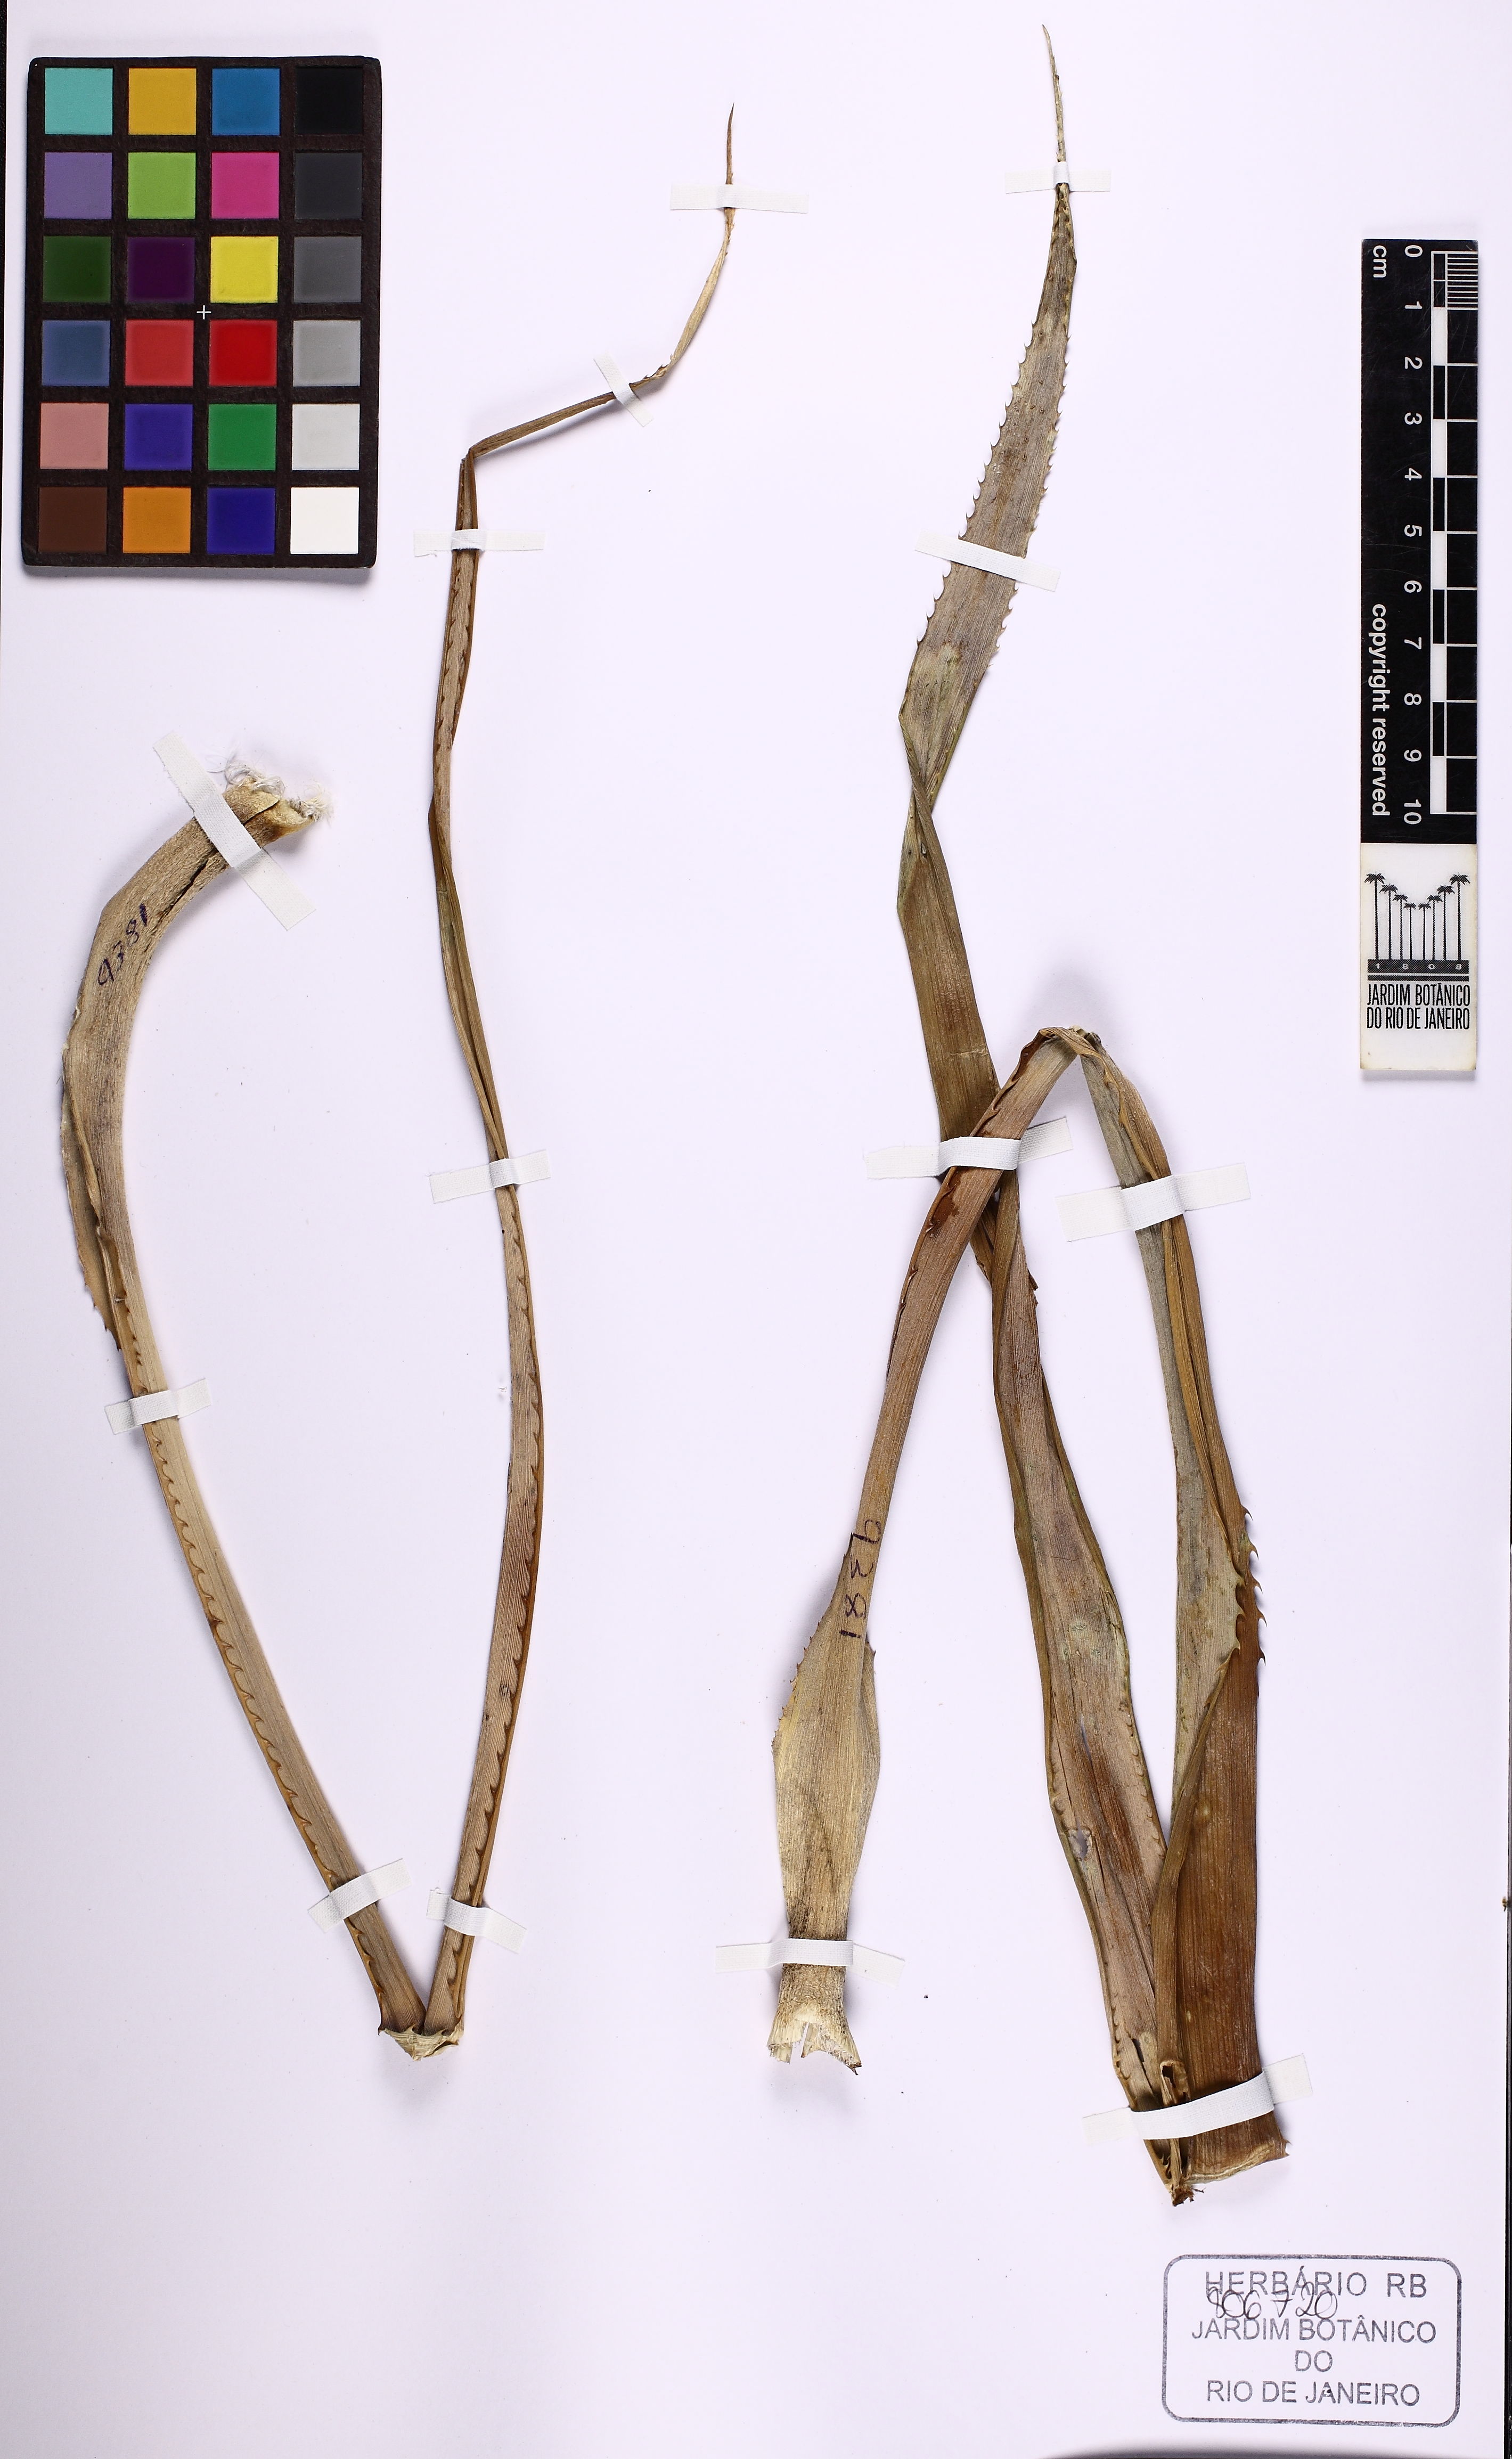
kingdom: Plantae
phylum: Tracheophyta
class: Liliopsida
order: Poales
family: Bromeliaceae
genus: Ananas
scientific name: Ananas comosus
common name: Pineapple
